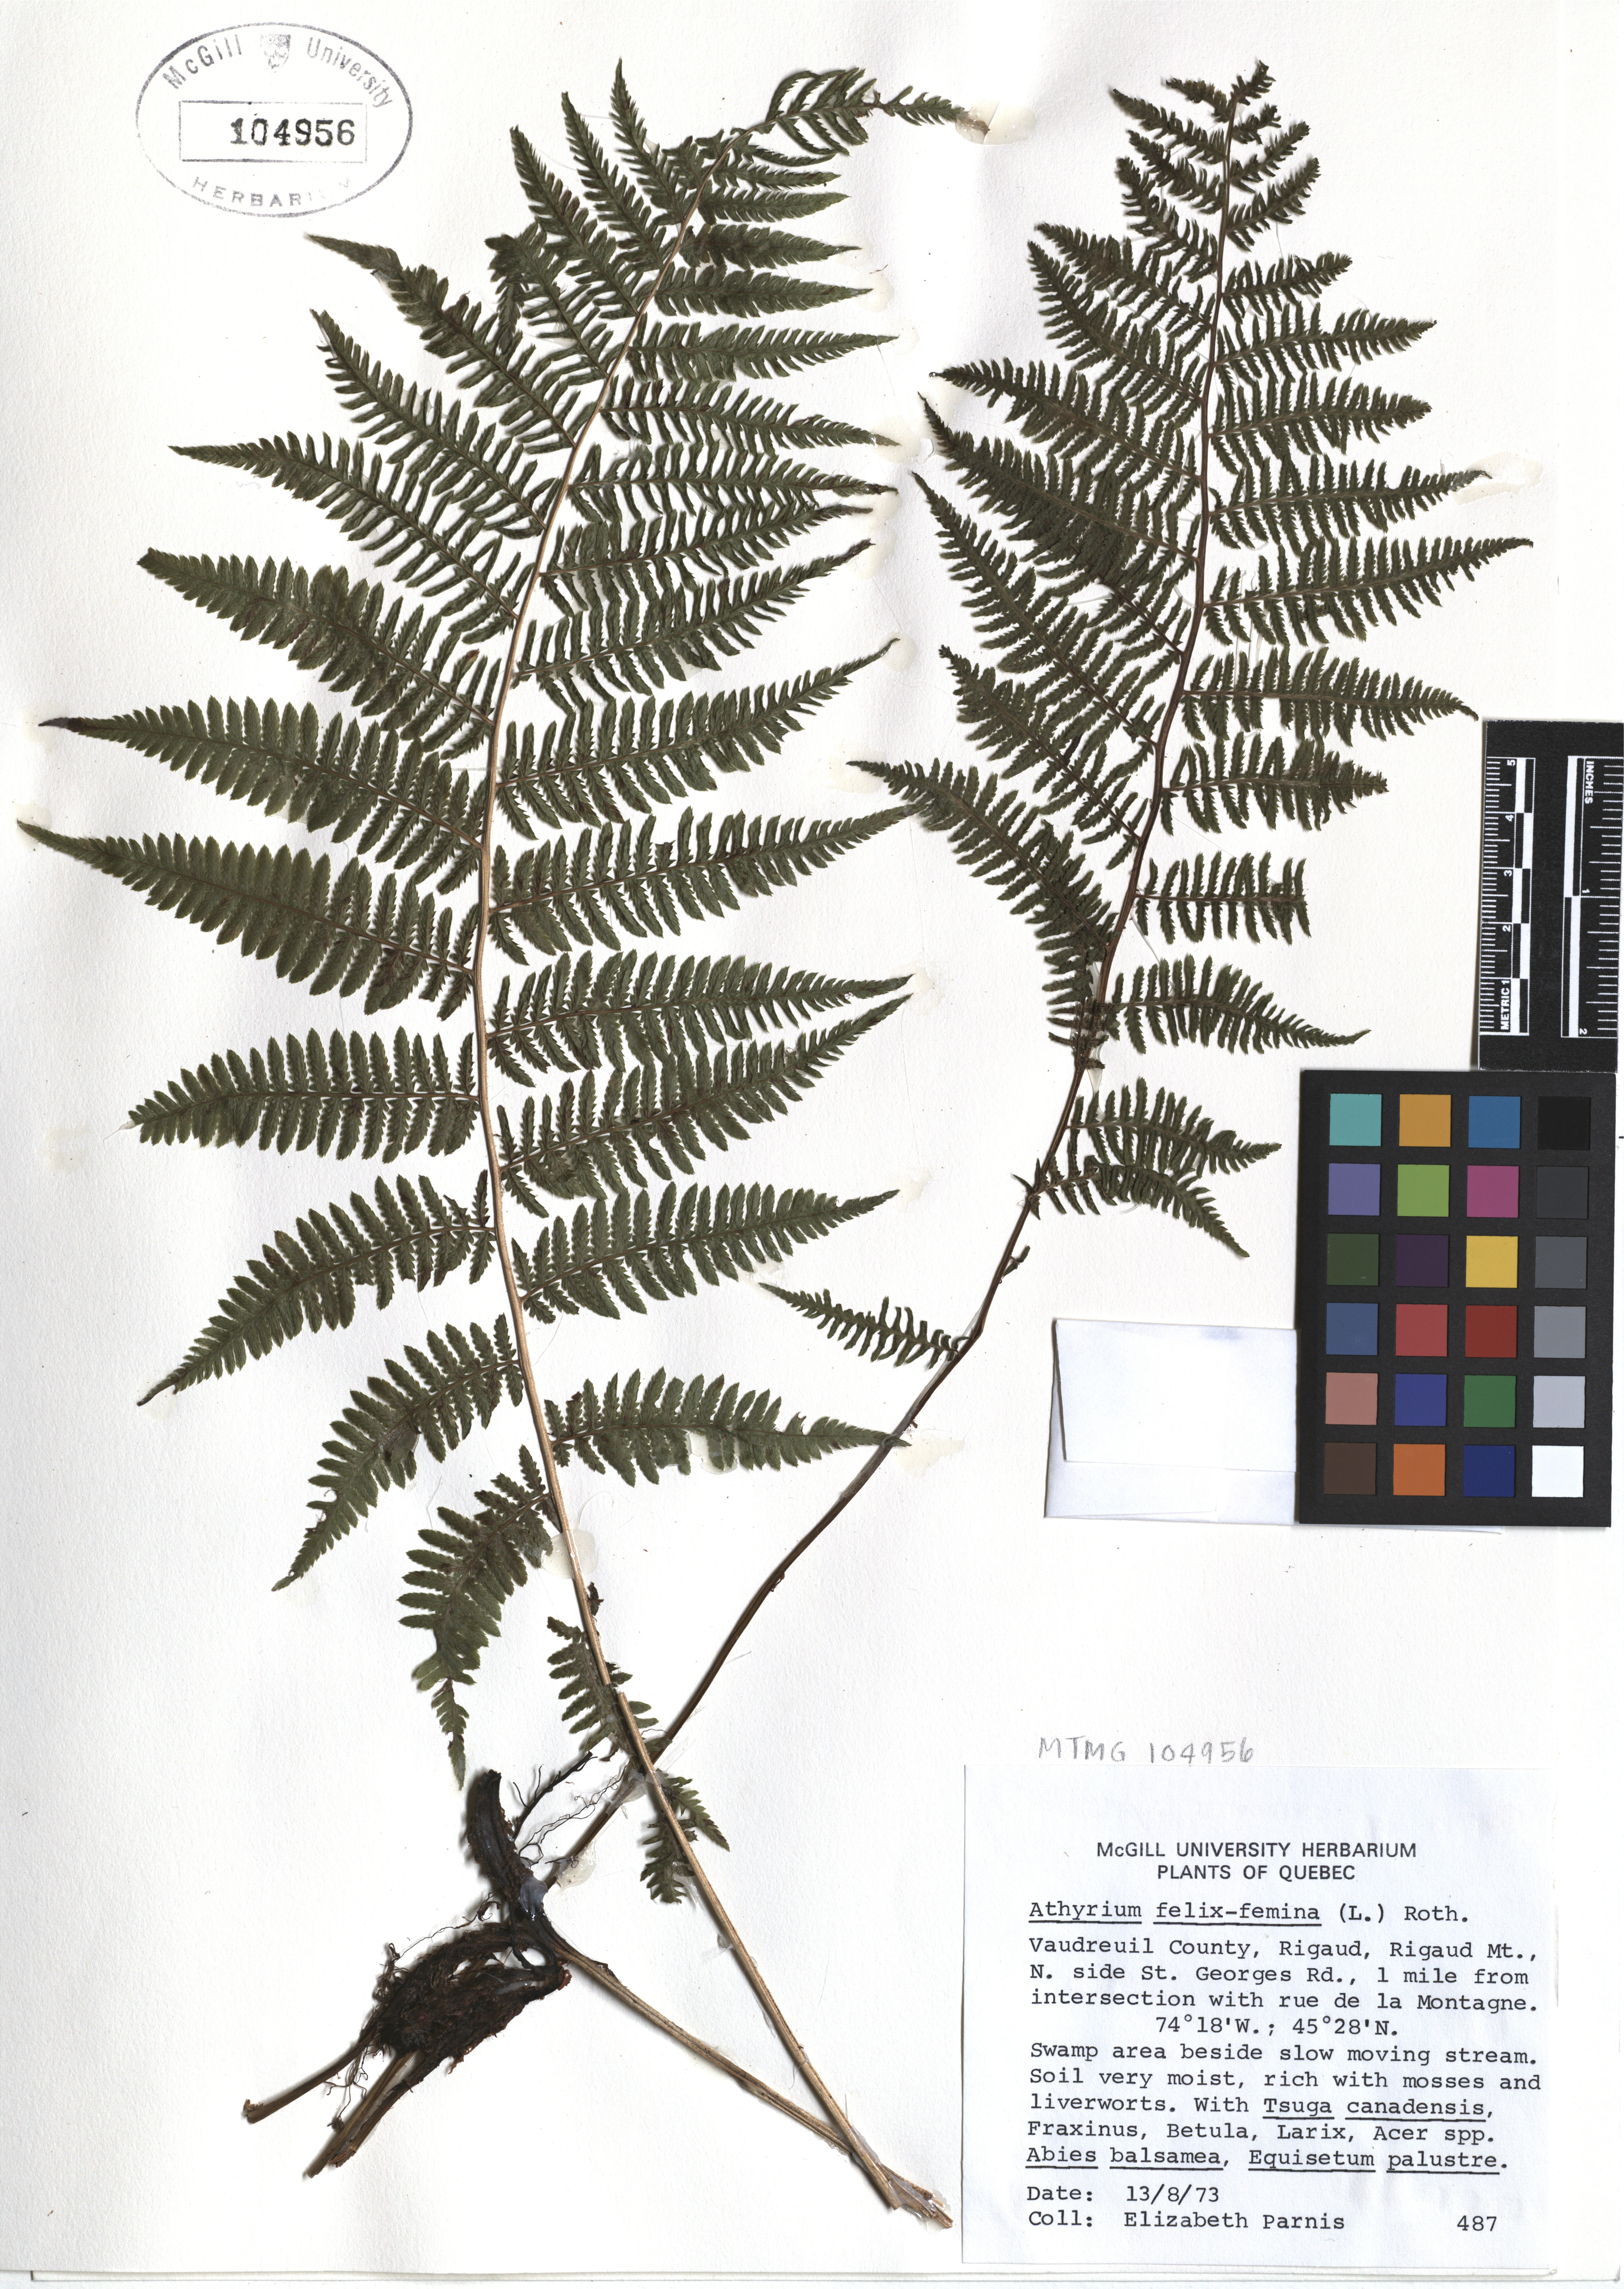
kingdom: Plantae
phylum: Tracheophyta
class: Polypodiopsida
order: Polypodiales
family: Athyriaceae
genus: Athyrium
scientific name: Athyrium filix-femina
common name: Lady fern
